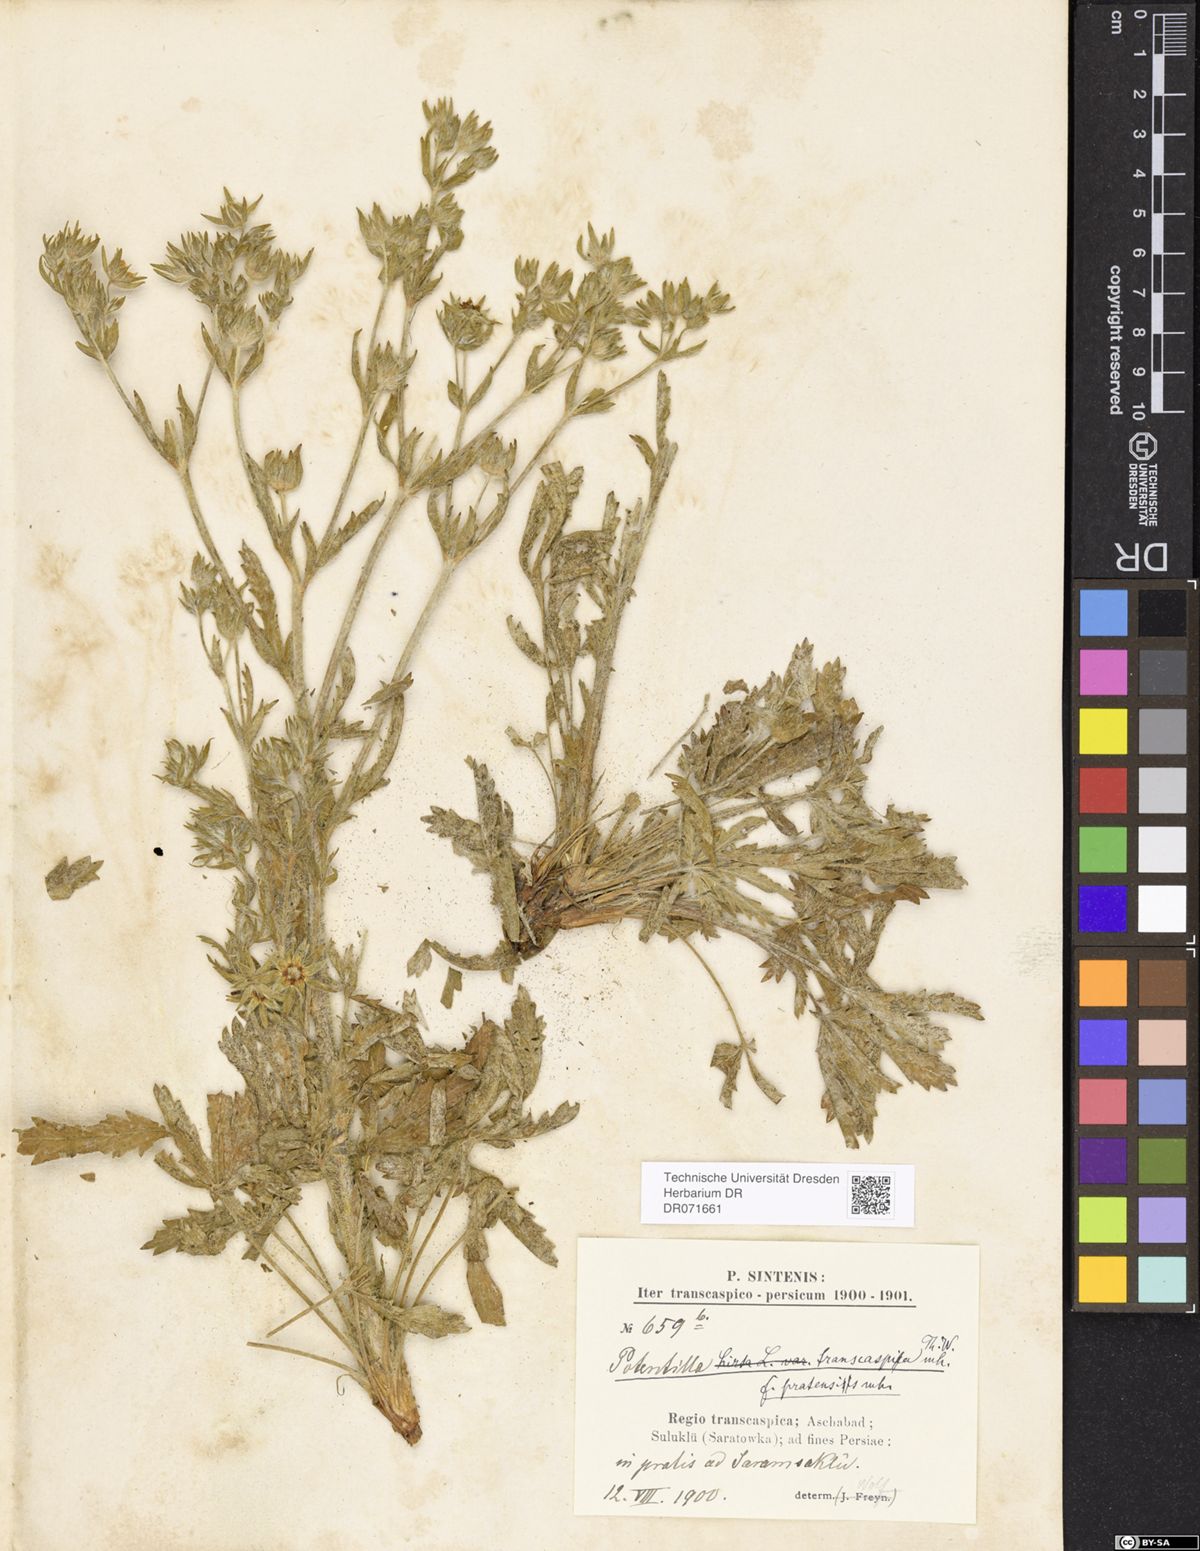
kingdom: Plantae
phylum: Tracheophyta
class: Magnoliopsida
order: Rosales
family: Rosaceae
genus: Potentilla
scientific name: Potentilla pedata
